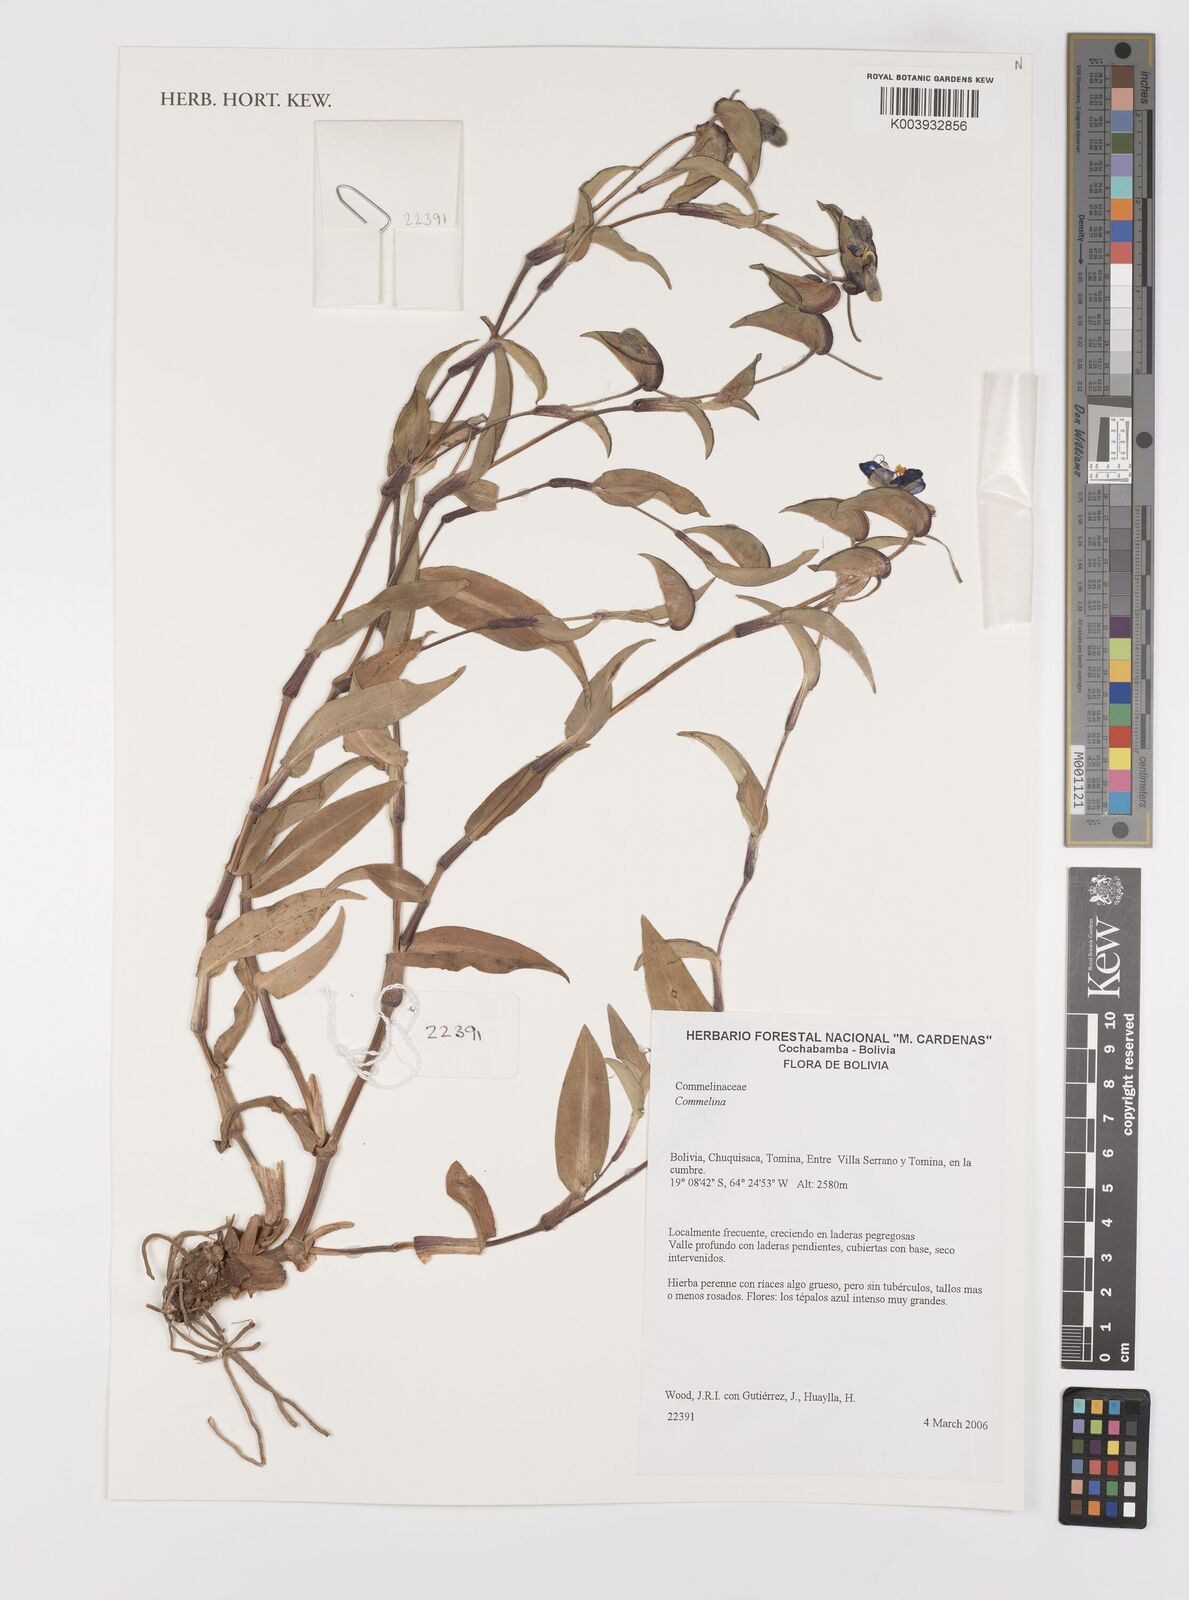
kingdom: Plantae
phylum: Tracheophyta
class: Liliopsida
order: Commelinales
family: Commelinaceae
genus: Commelina
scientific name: Commelina
